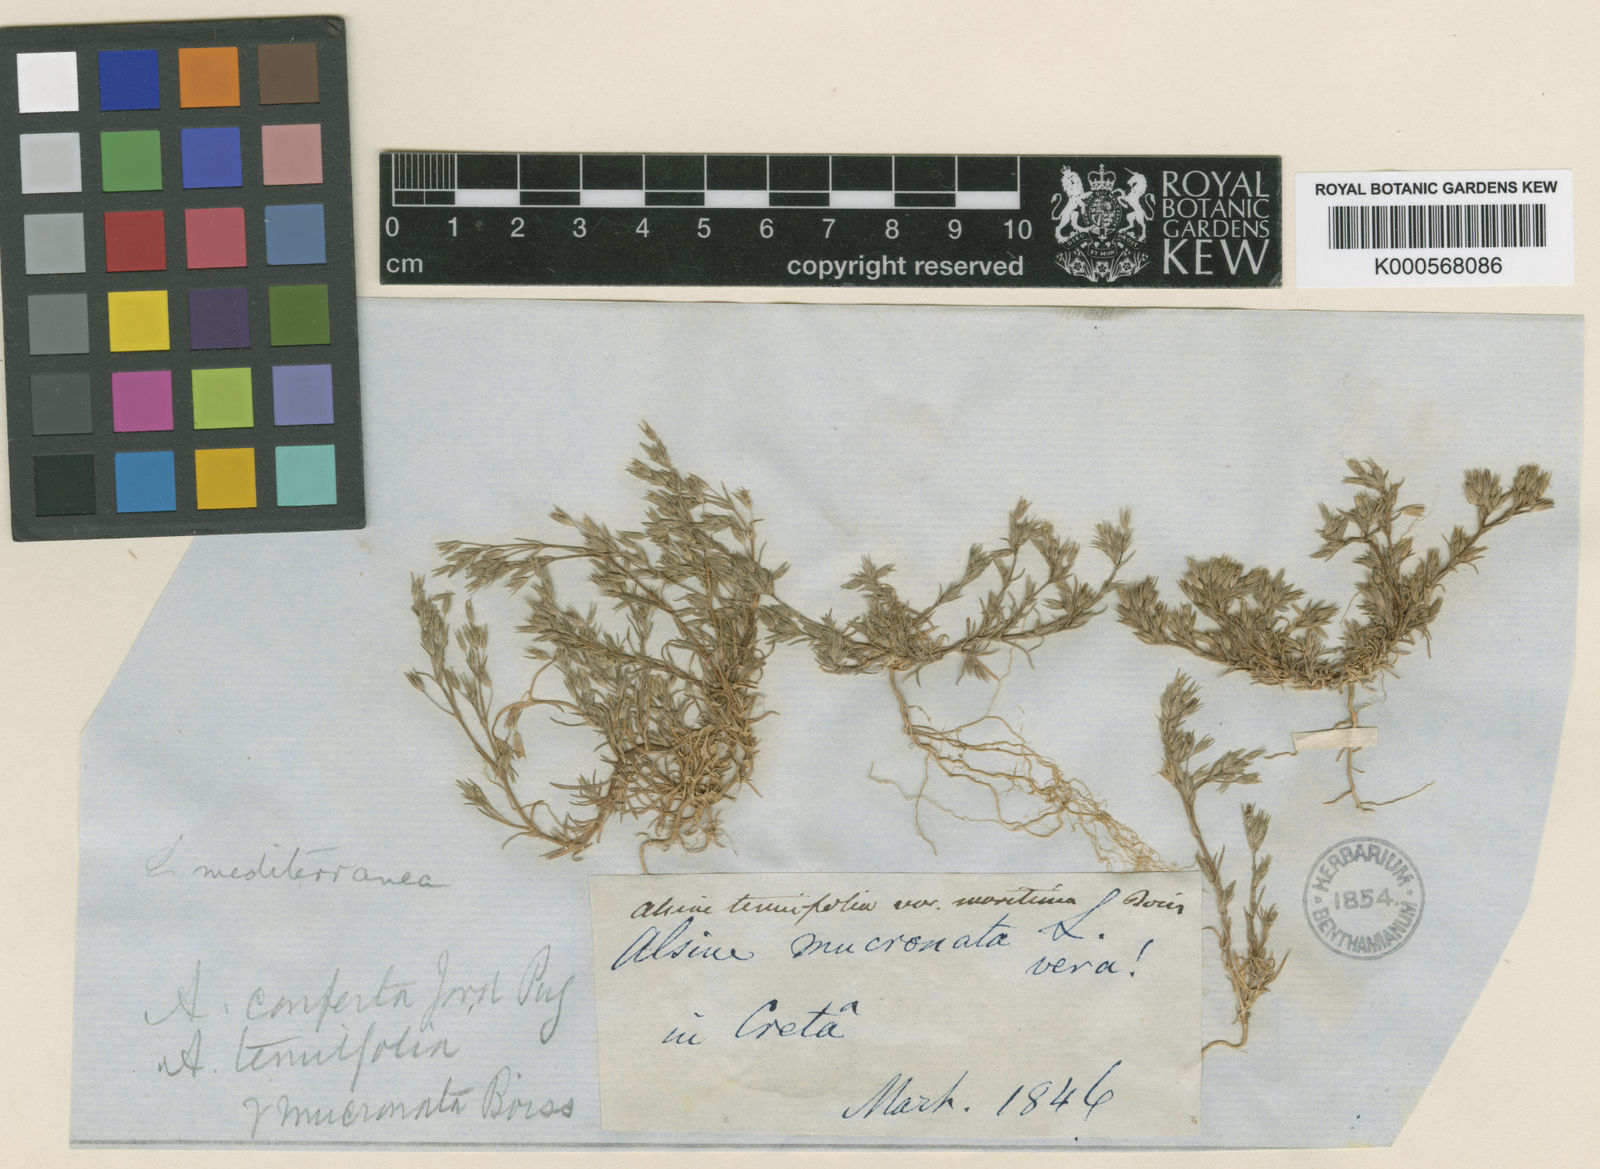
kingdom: Plantae
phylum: Tracheophyta
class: Magnoliopsida
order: Caryophyllales
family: Caryophyllaceae
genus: Minuartia
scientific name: Minuartia
